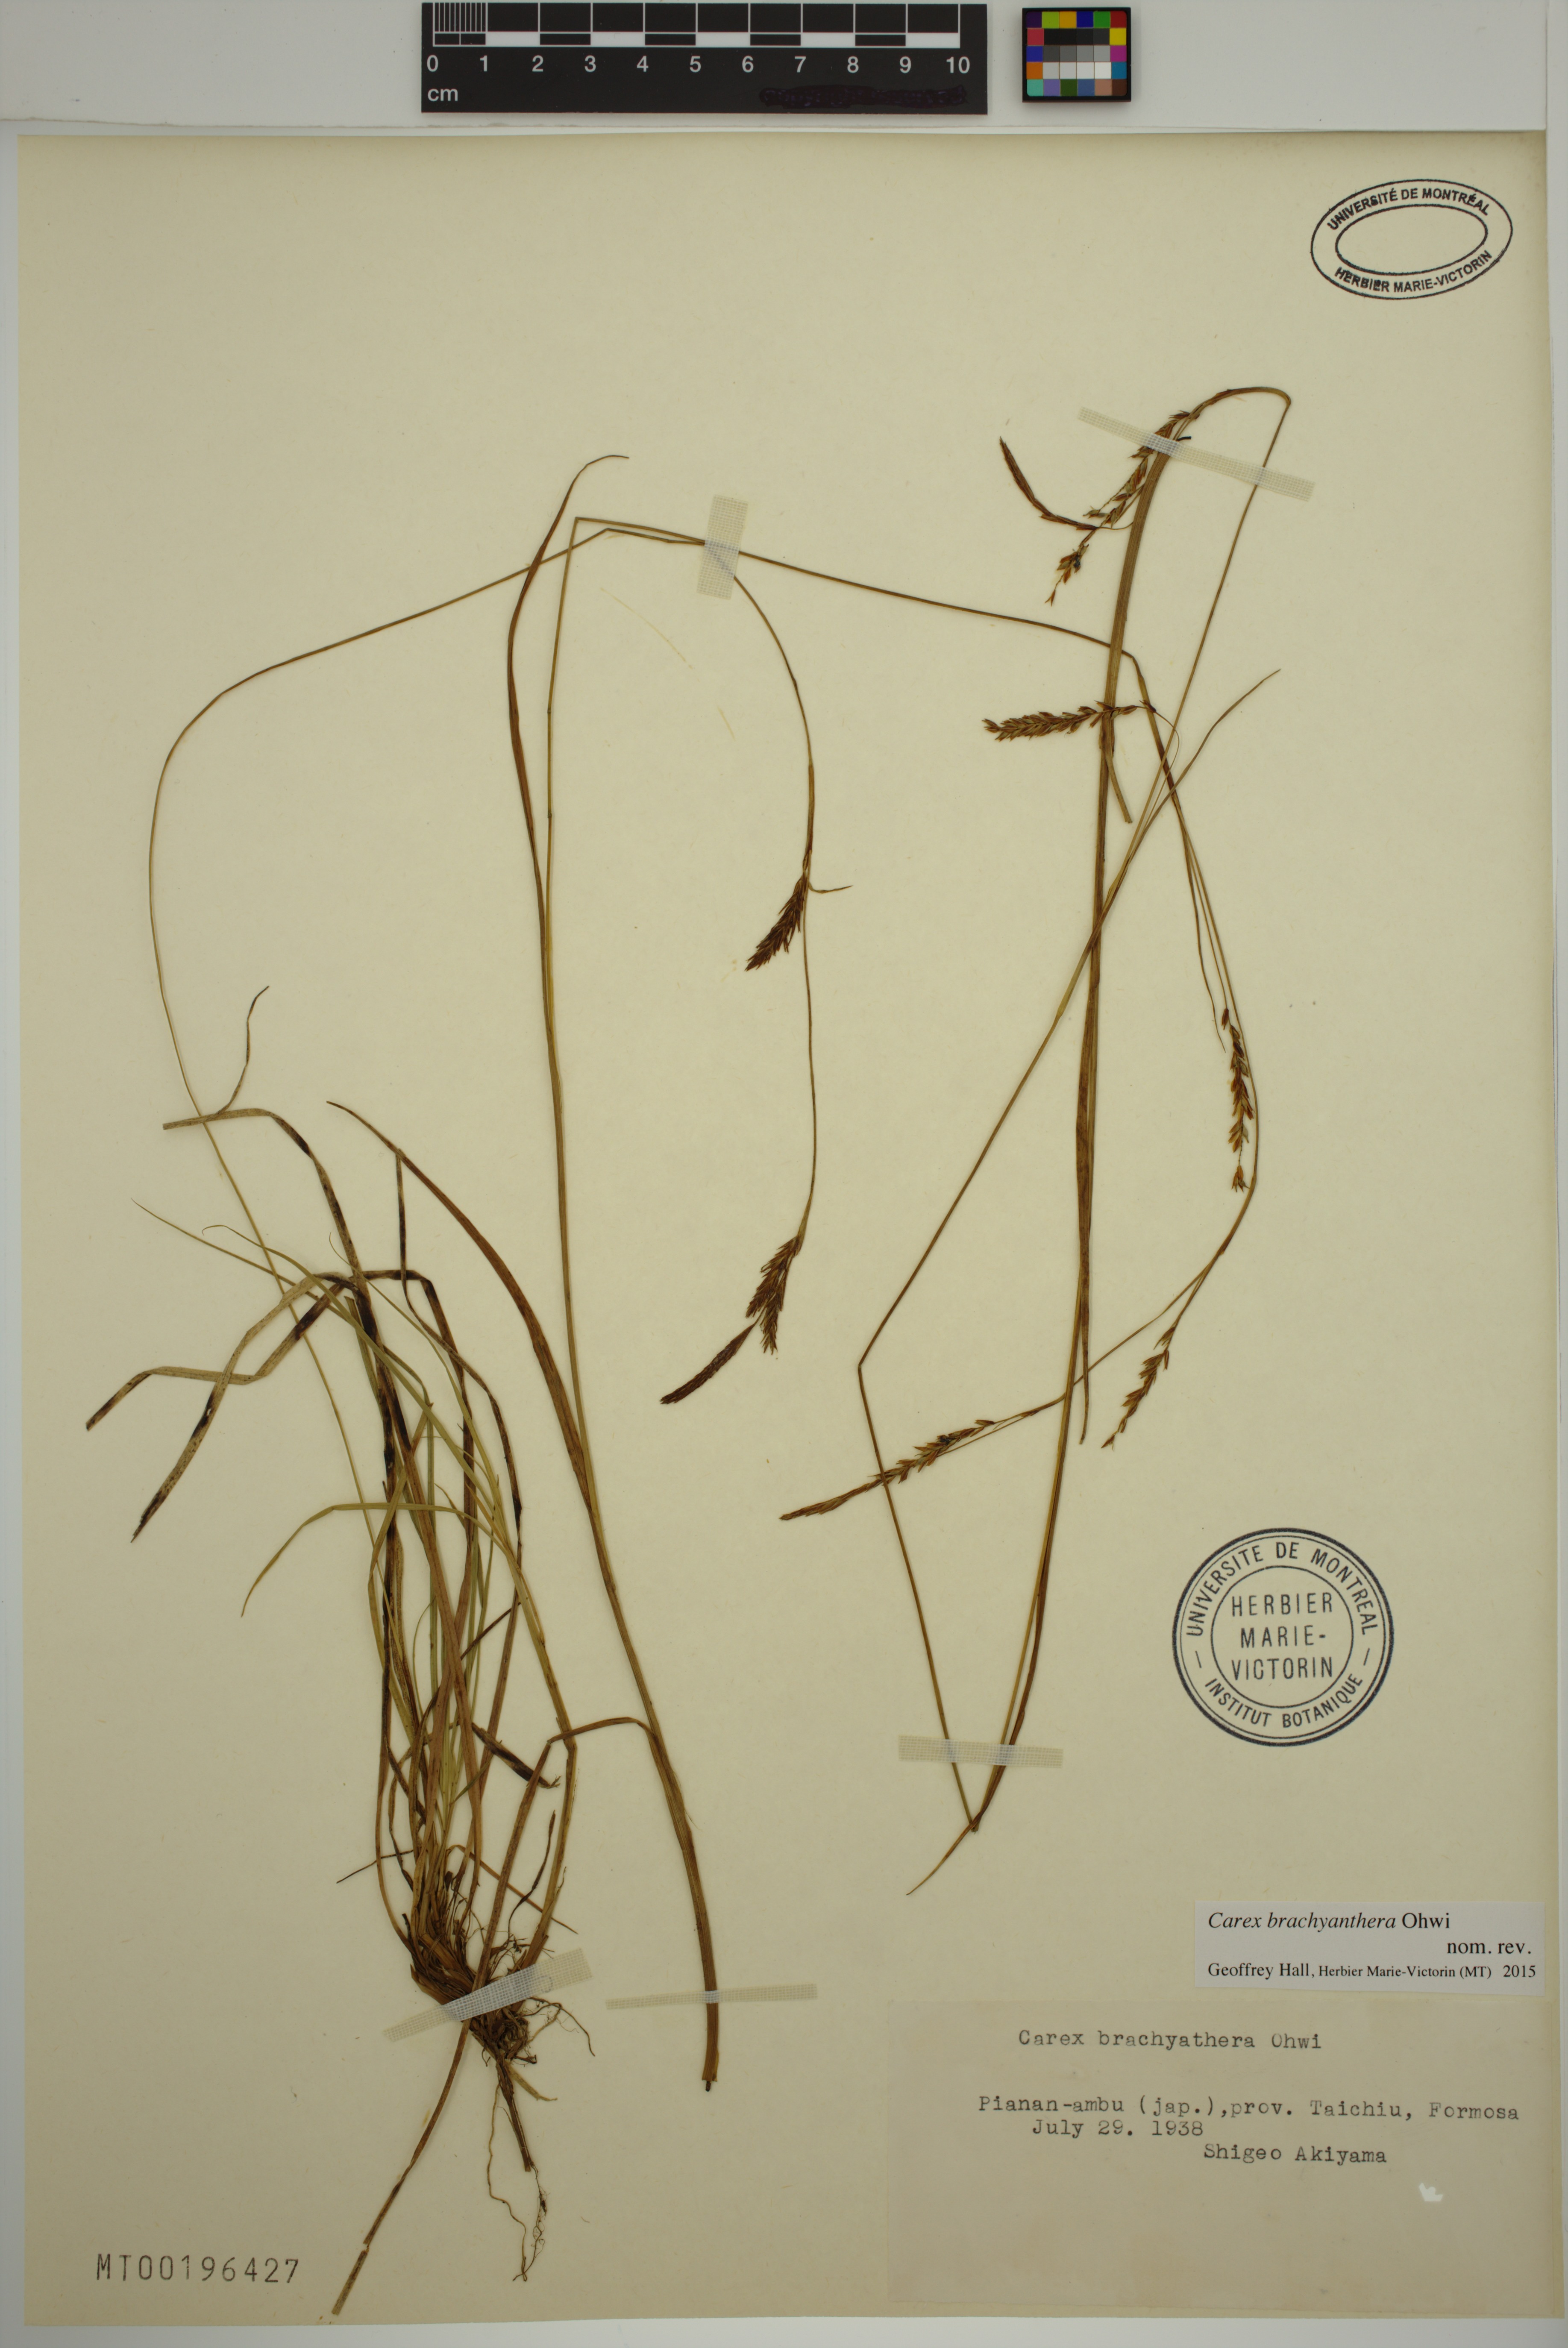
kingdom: Plantae
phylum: Tracheophyta
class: Liliopsida
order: Poales
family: Cyperaceae
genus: Carex
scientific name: Carex brachyanthera
